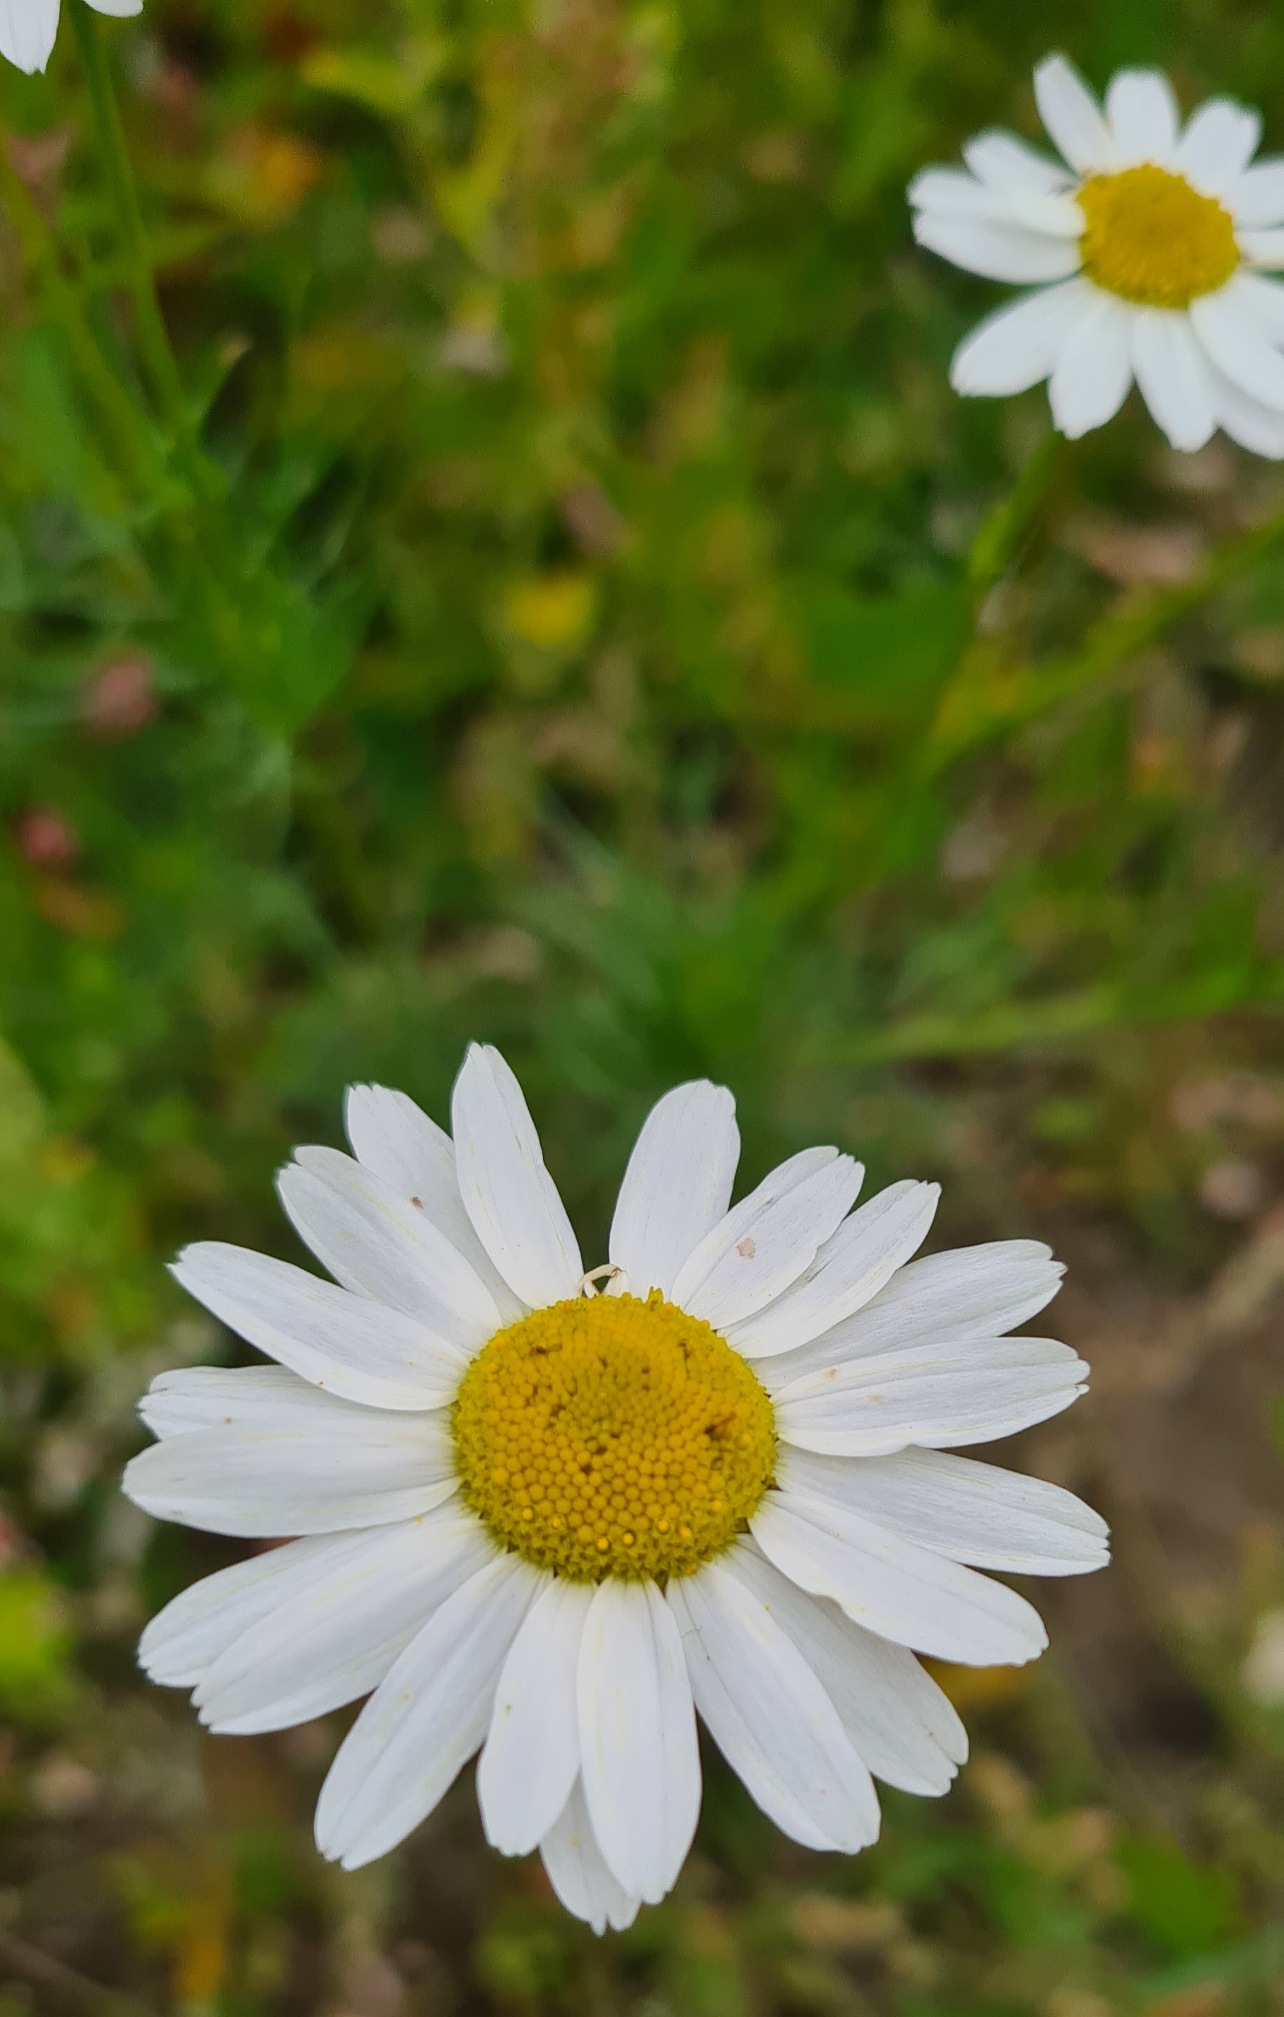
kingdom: Plantae
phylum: Tracheophyta
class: Magnoliopsida
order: Asterales
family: Asteraceae
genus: Tripleurospermum
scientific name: Tripleurospermum inodorum
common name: Lugtløs kamille
